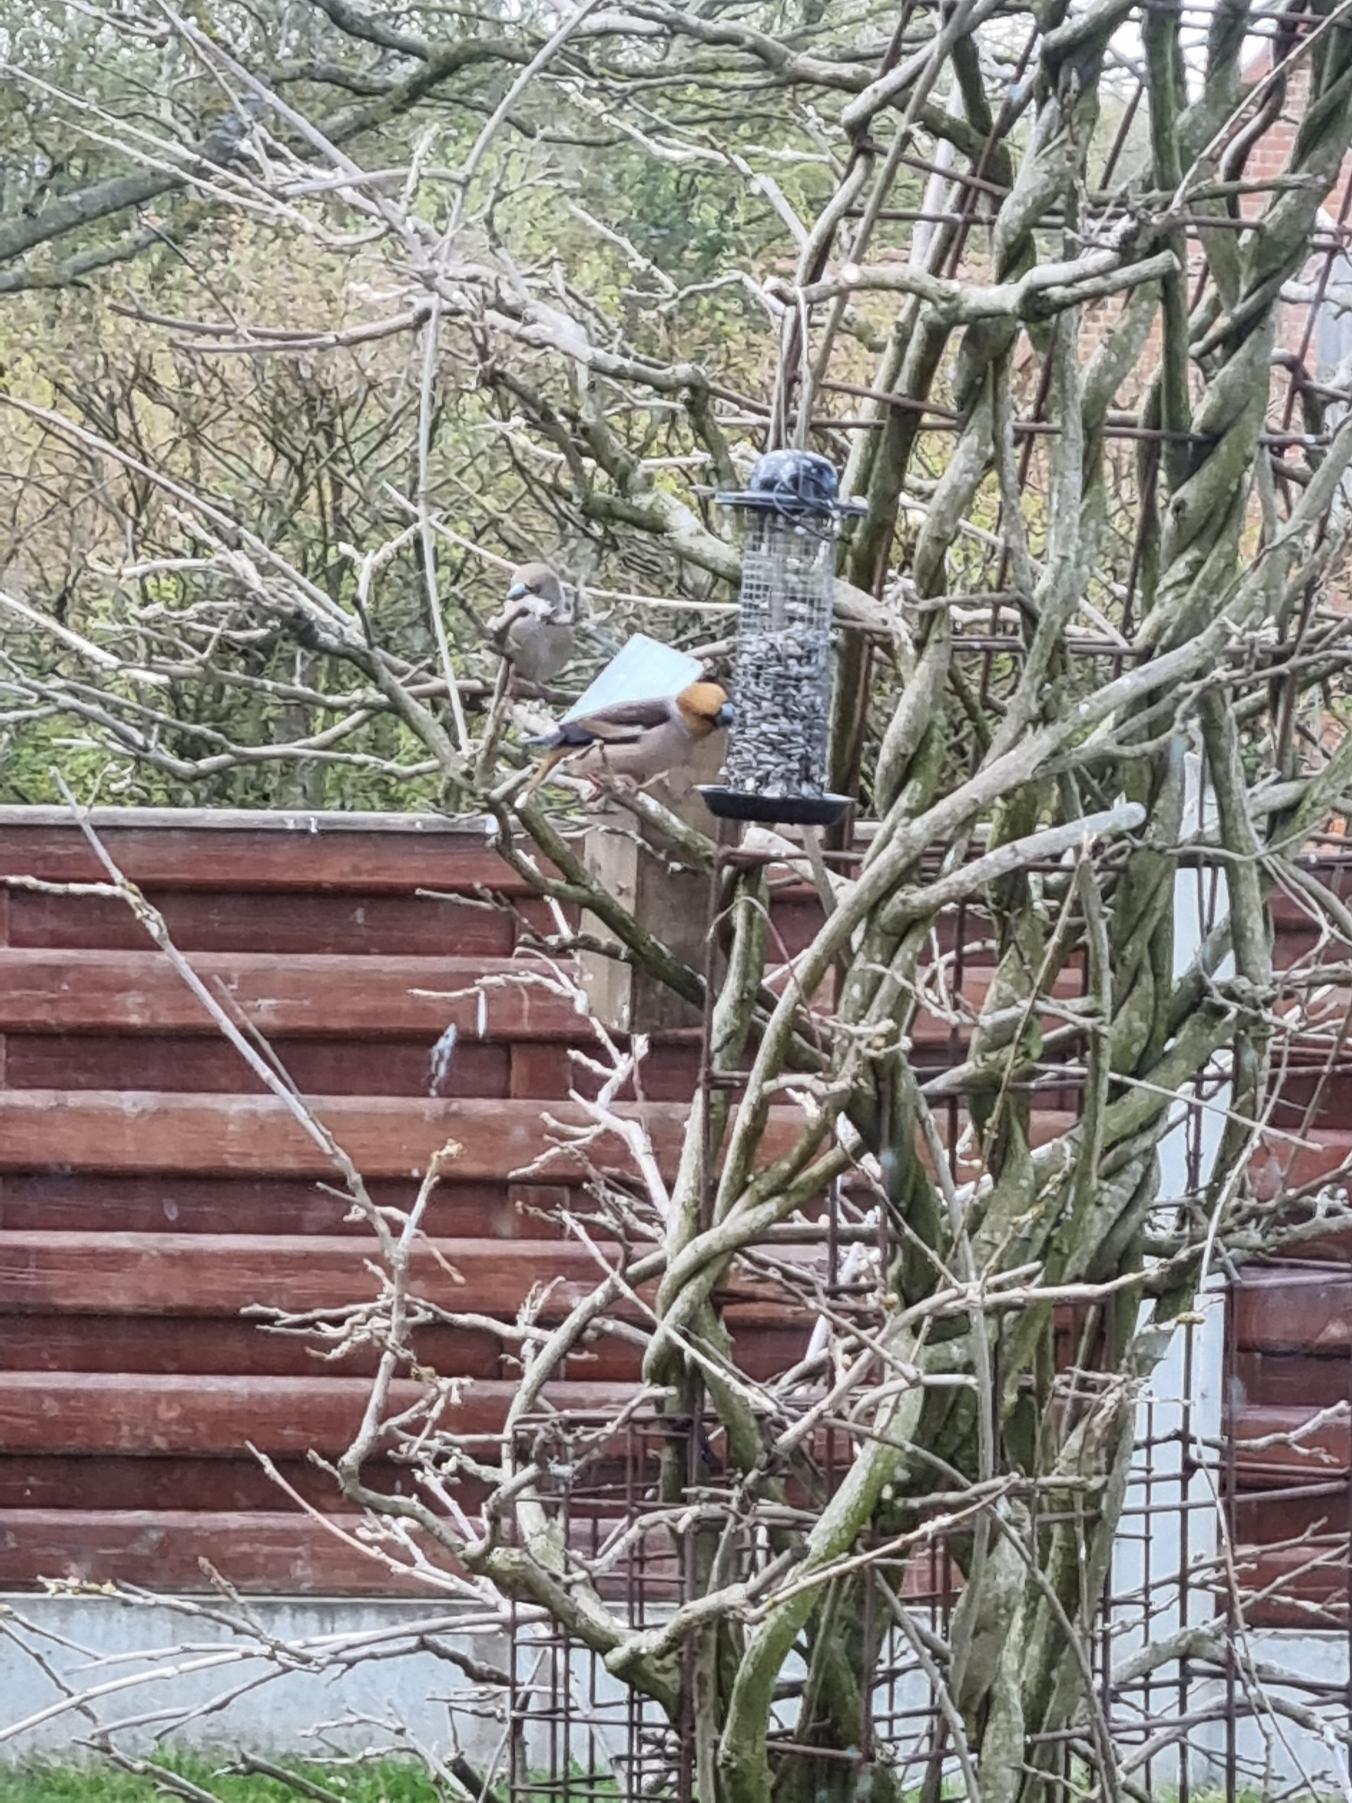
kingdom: Animalia
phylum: Chordata
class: Aves
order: Passeriformes
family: Fringillidae
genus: Coccothraustes
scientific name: Coccothraustes coccothraustes
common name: Kernebider
